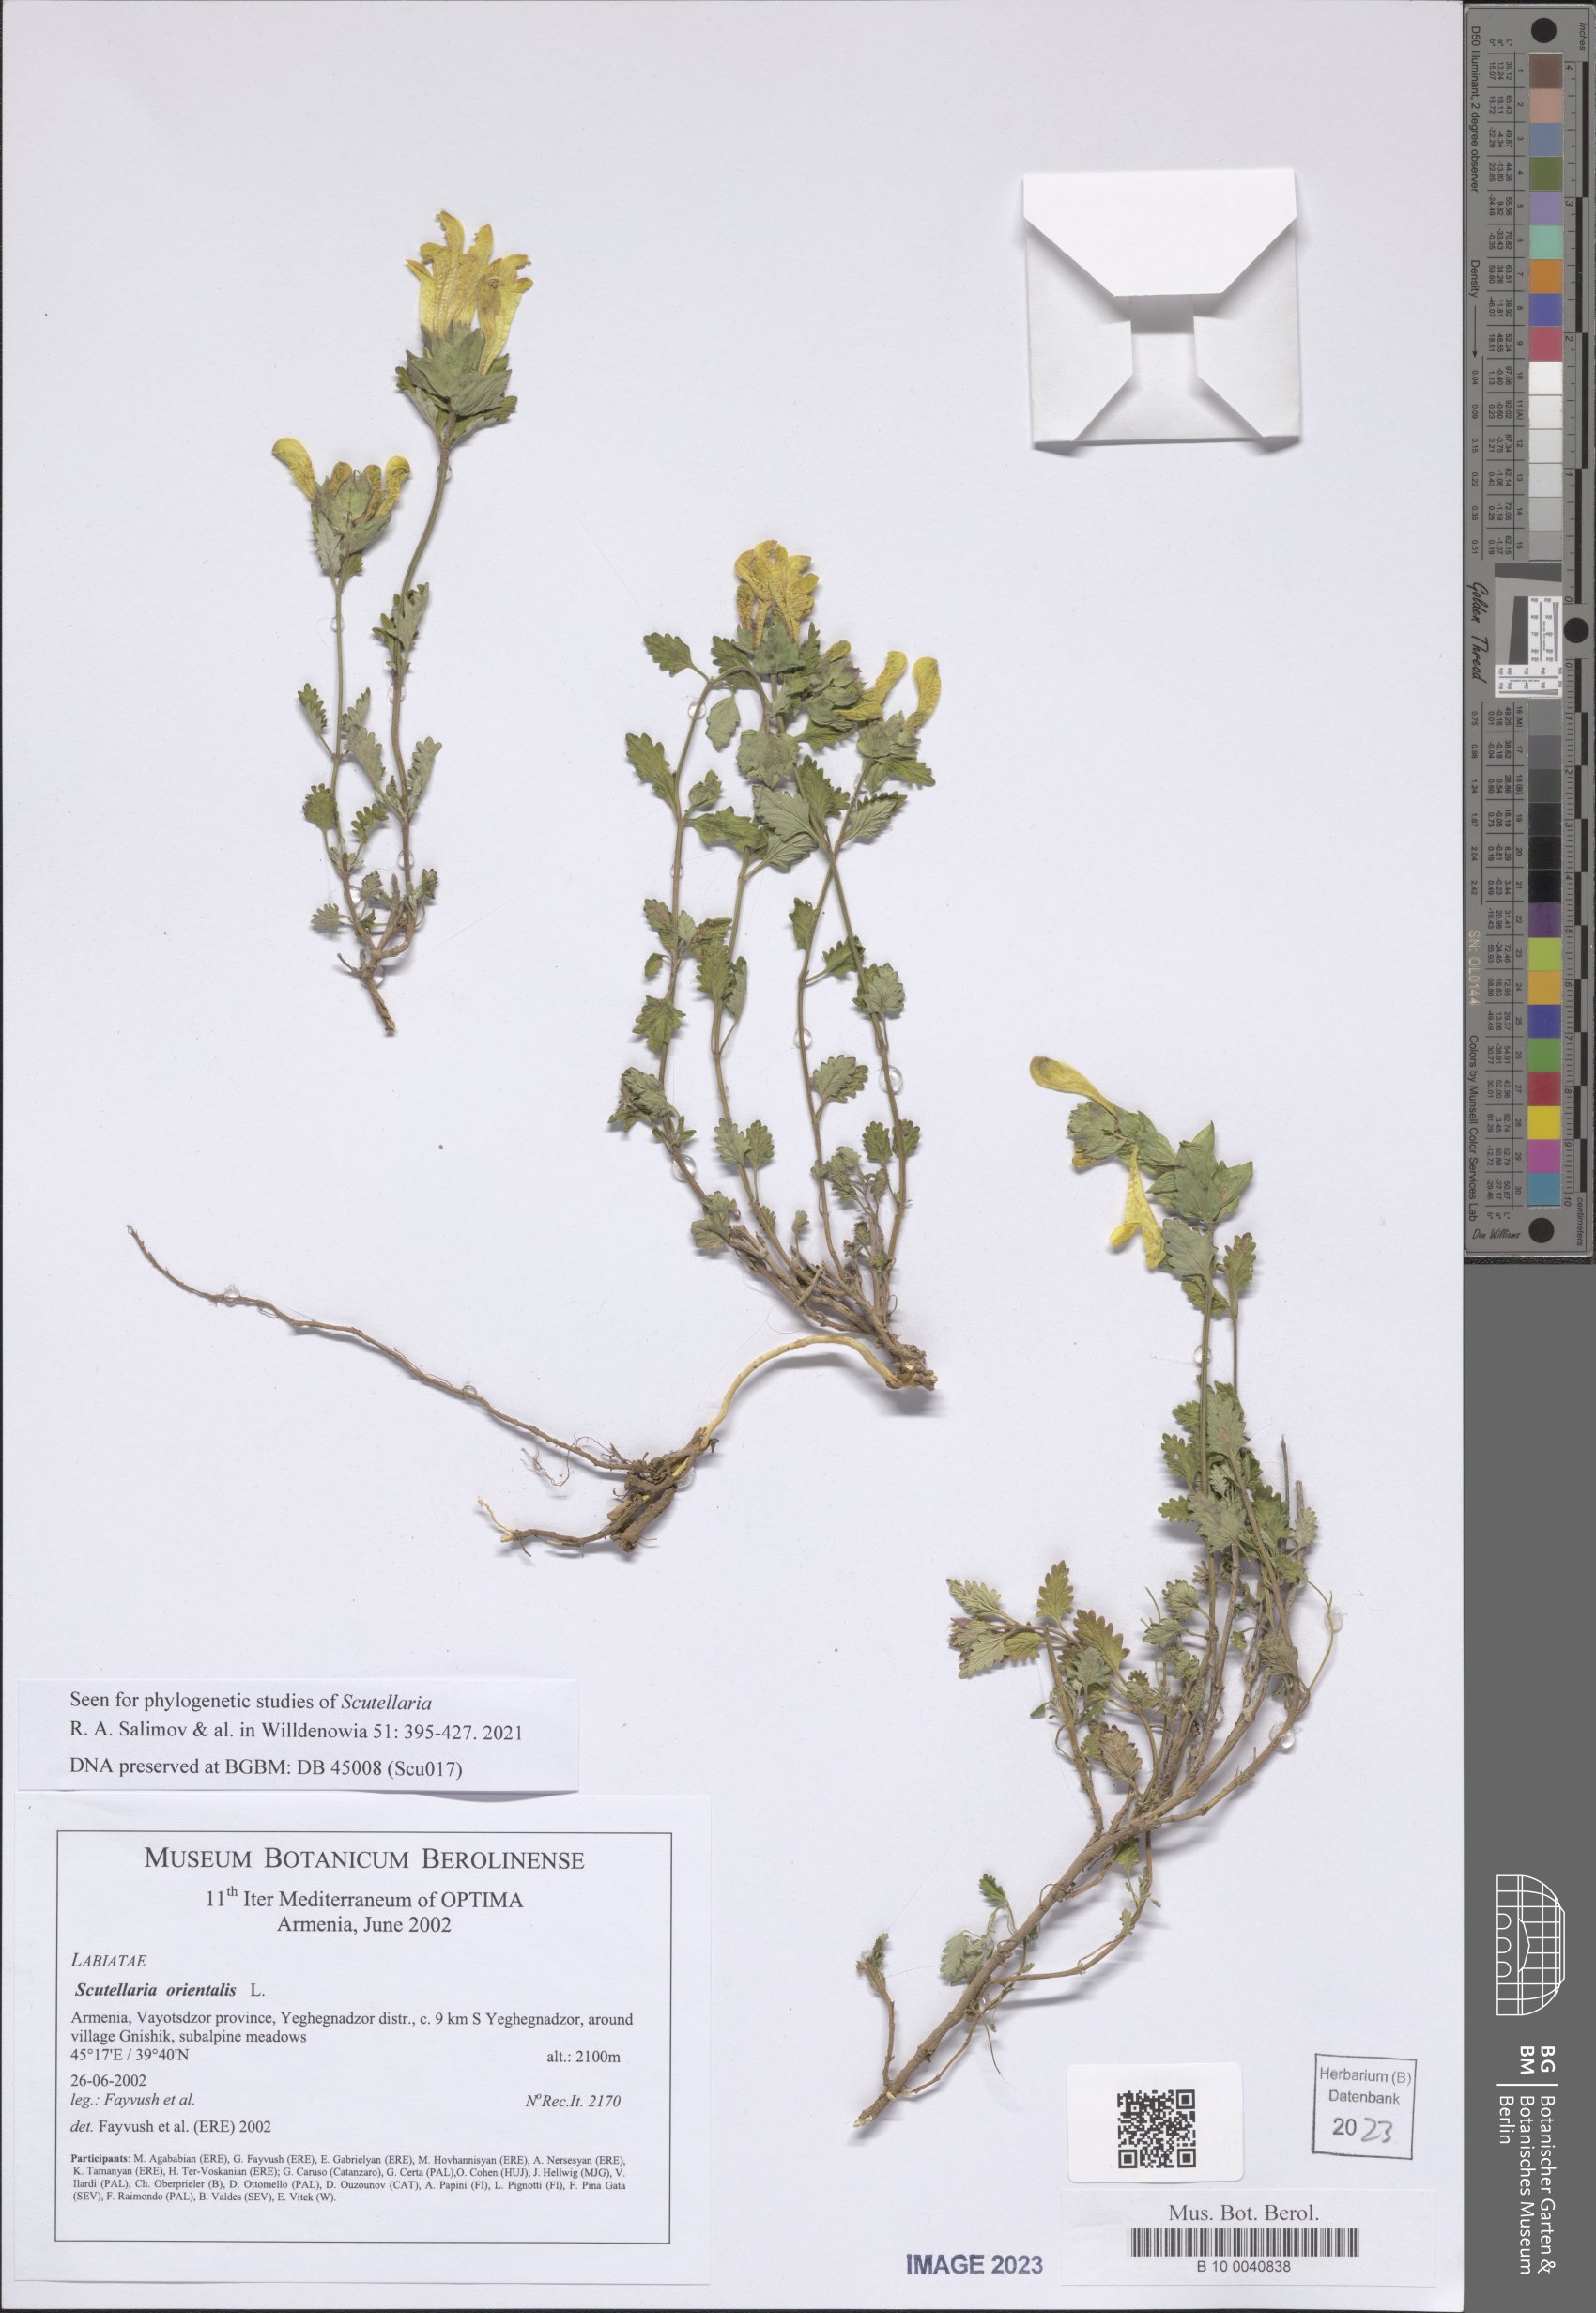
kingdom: Plantae
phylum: Tracheophyta
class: Magnoliopsida
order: Lamiales
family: Lamiaceae
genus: Scutellaria
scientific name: Scutellaria orientalis
